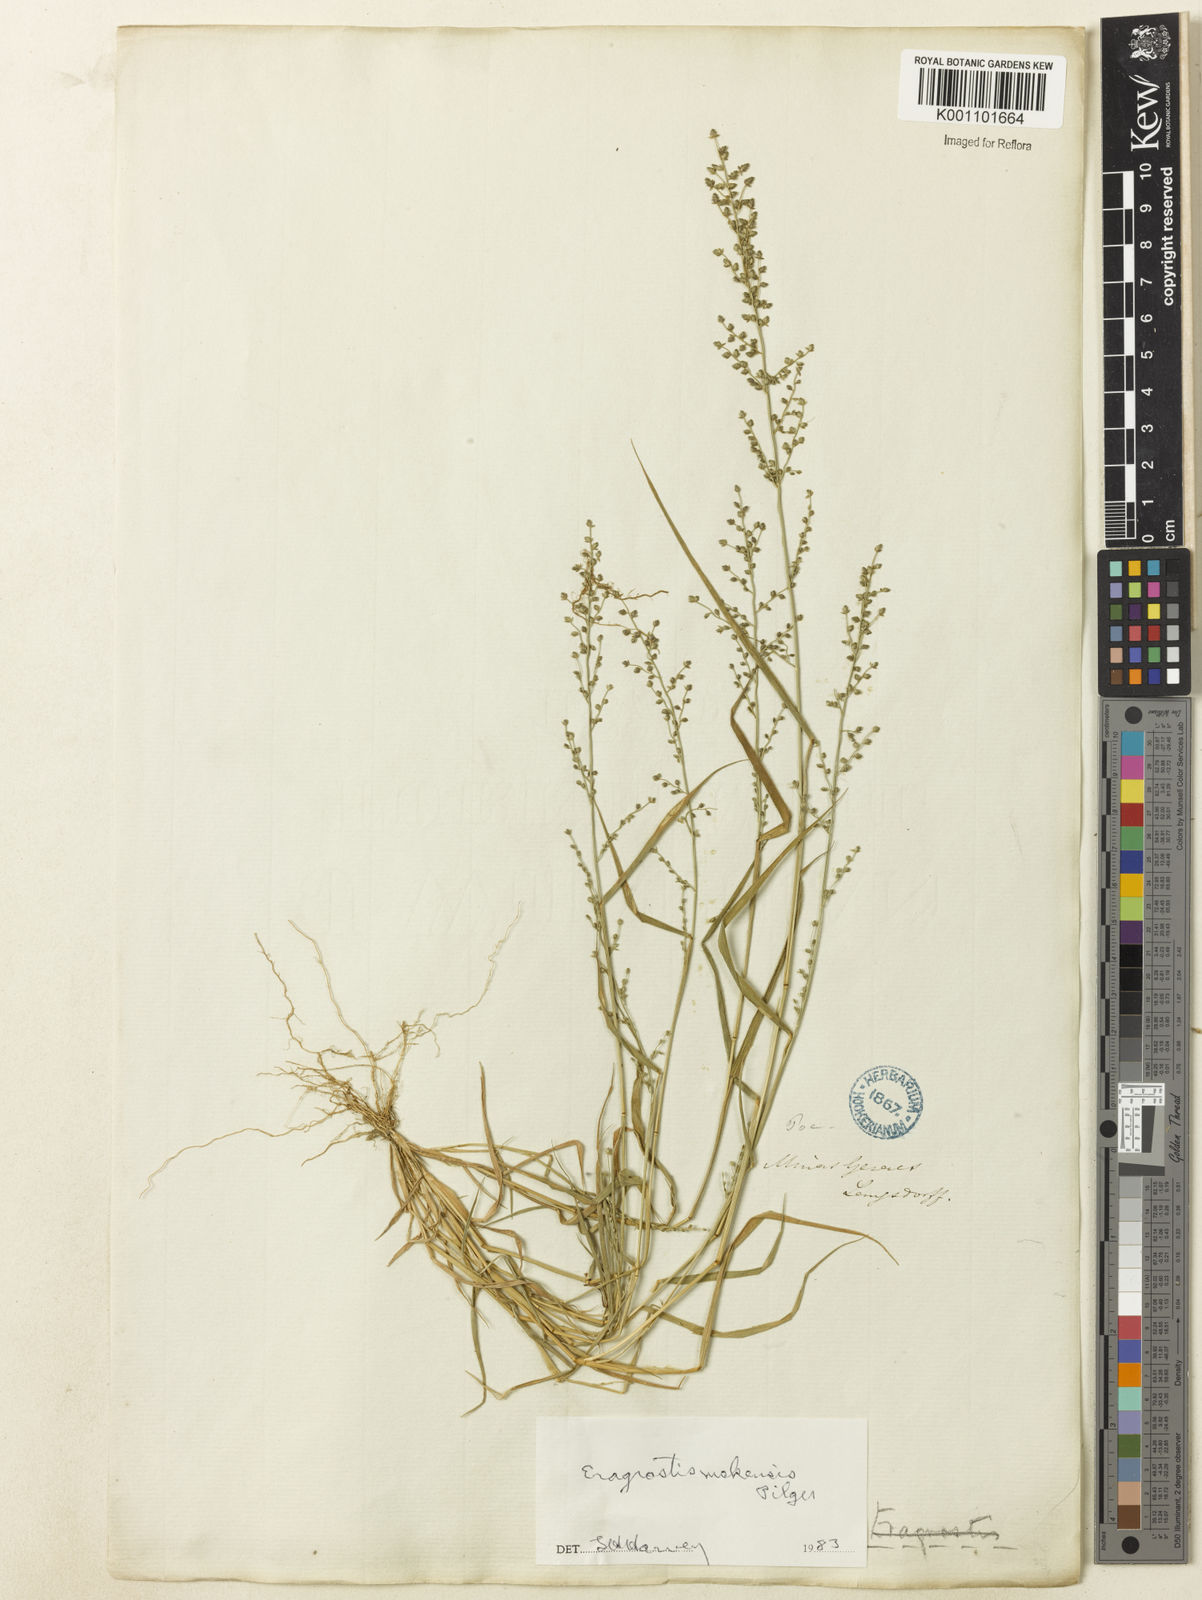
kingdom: Plantae
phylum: Tracheophyta
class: Liliopsida
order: Poales
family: Poaceae
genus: Eragrostis
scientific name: Eragrostis mokensis
